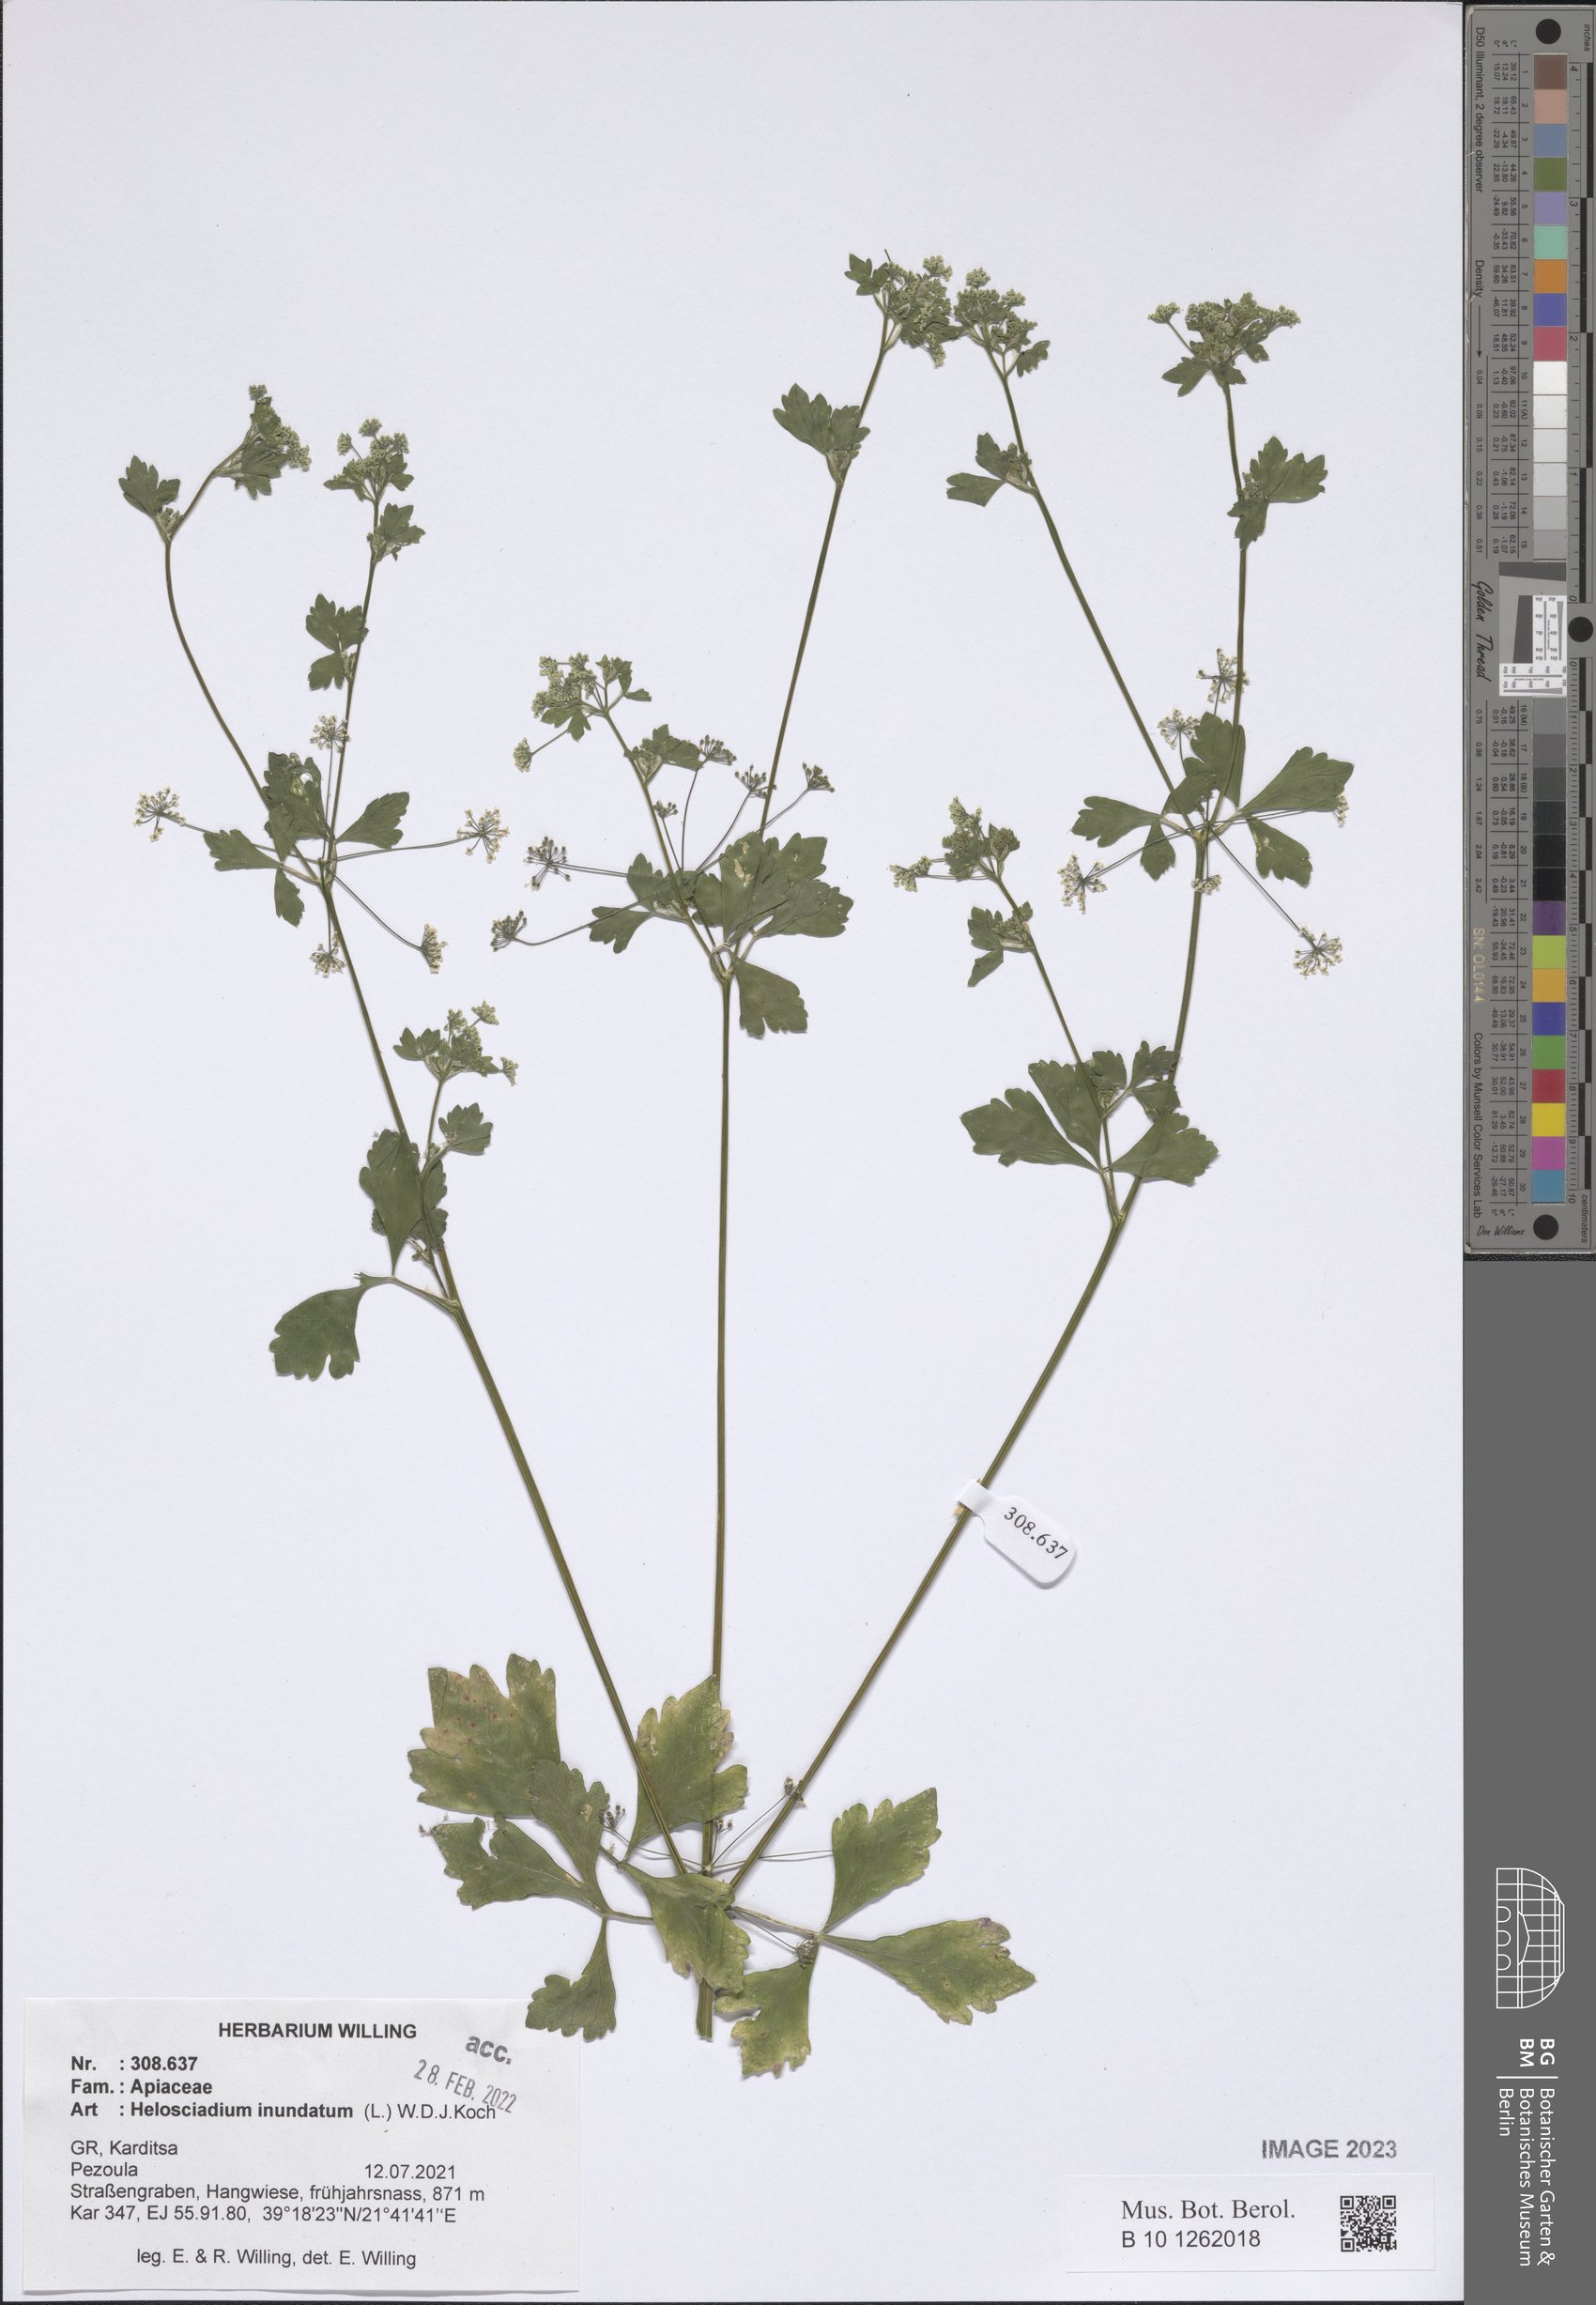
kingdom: Plantae
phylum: Tracheophyta
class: Magnoliopsida
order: Apiales
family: Apiaceae
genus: Helosciadium
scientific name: Helosciadium inundatum
